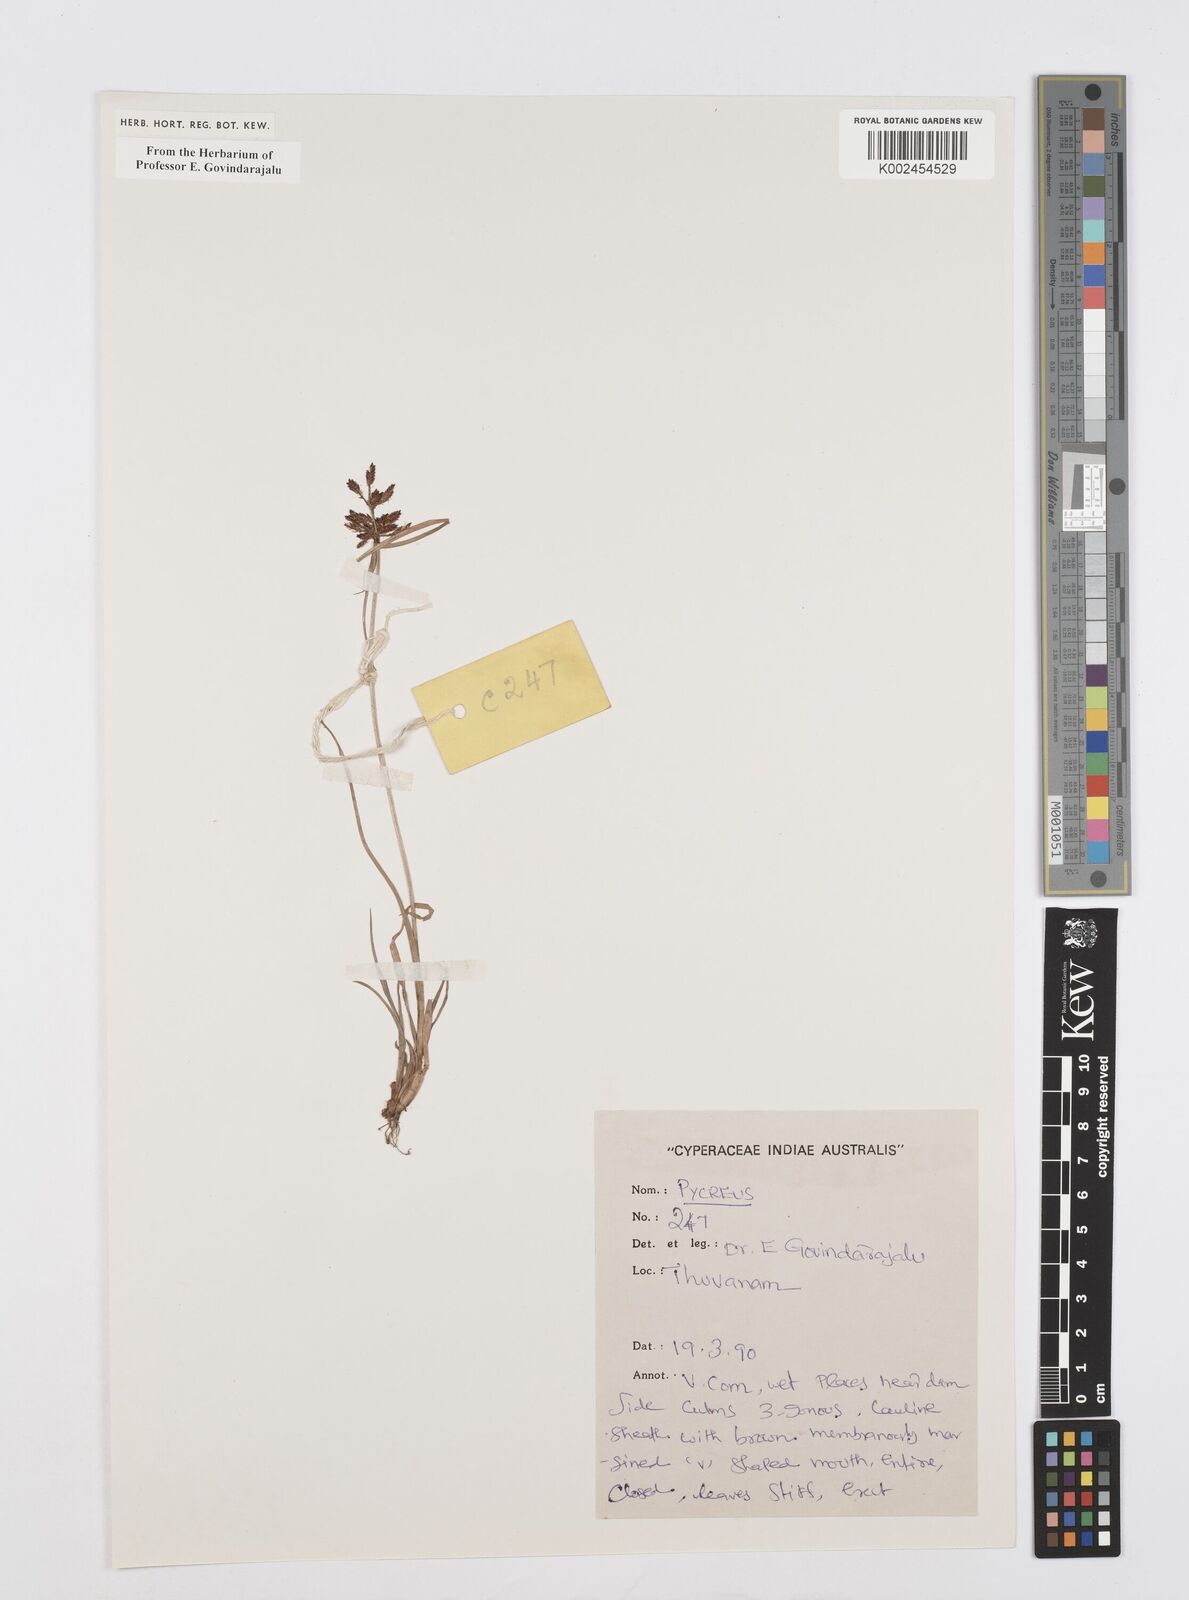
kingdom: Plantae
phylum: Tracheophyta
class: Liliopsida
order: Poales
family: Cyperaceae
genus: Cyperus
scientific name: Cyperus
